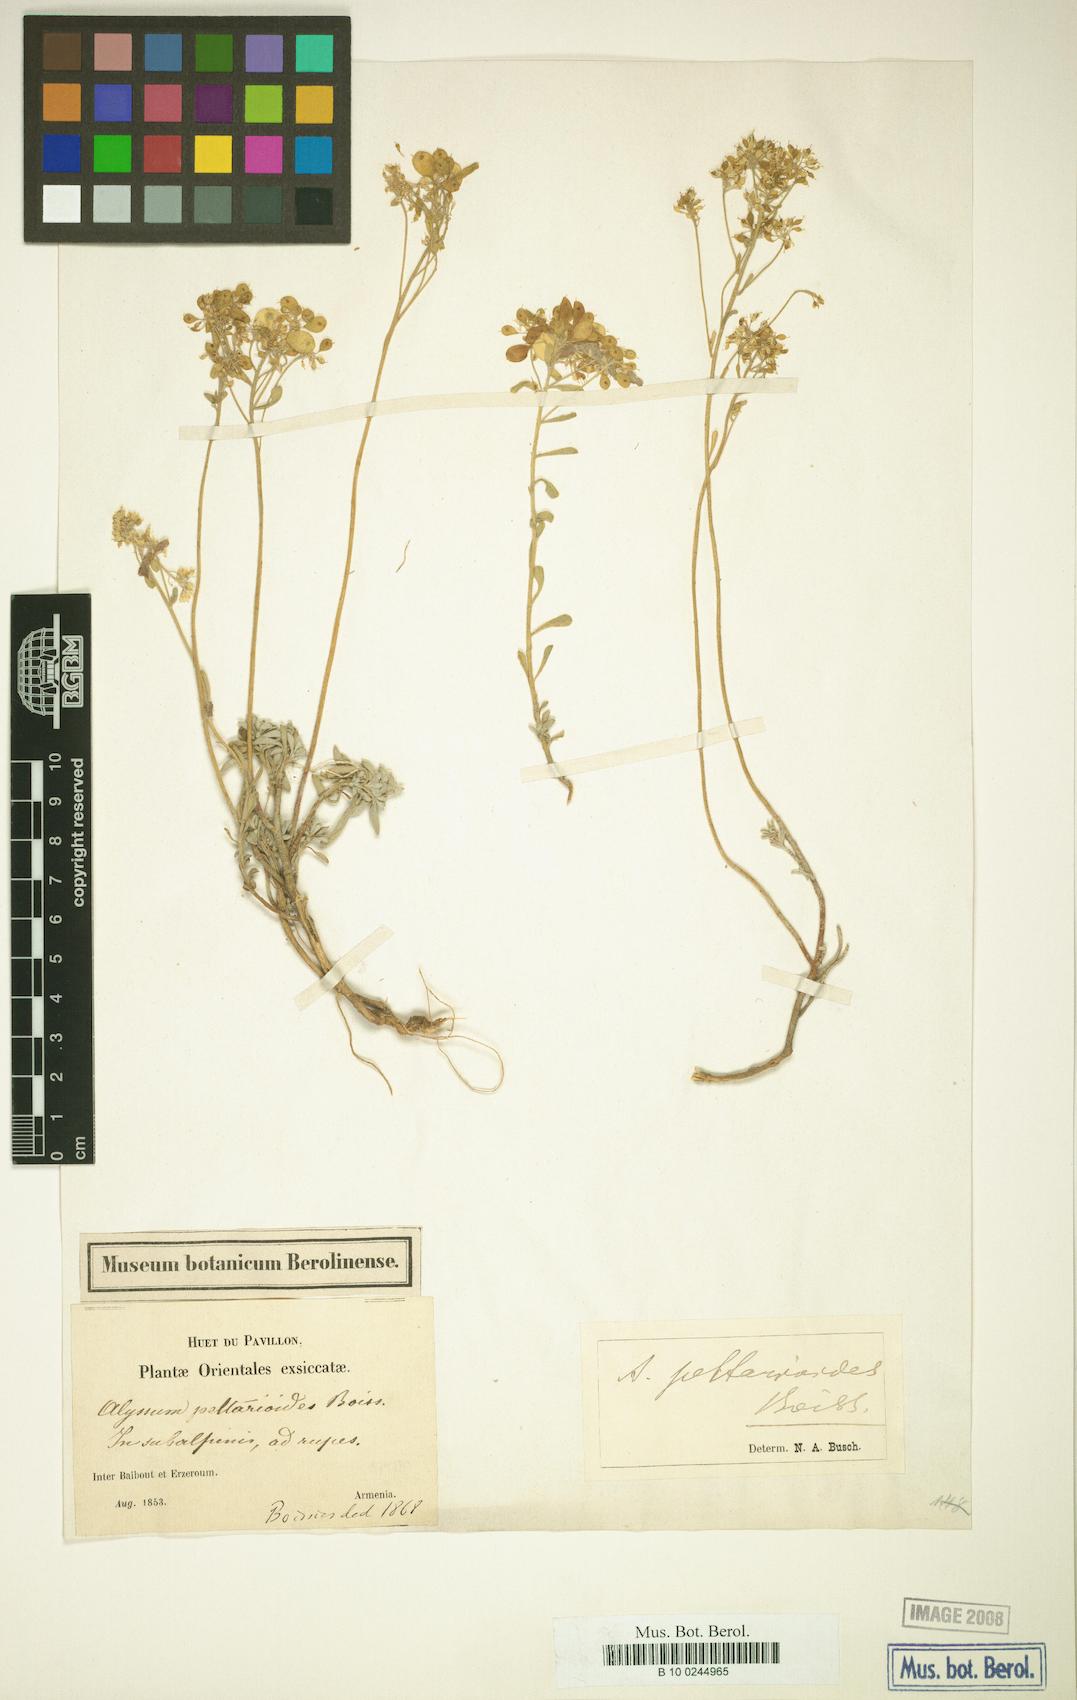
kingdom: Plantae
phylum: Tracheophyta
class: Magnoliopsida
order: Brassicales
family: Brassicaceae
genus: Odontarrhena
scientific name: Odontarrhena peltarioidea
